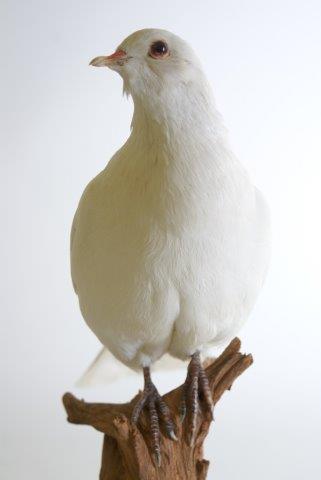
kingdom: Animalia
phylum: Chordata
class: Aves
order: Columbiformes
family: Columbidae
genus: Columba
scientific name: Columba livia
